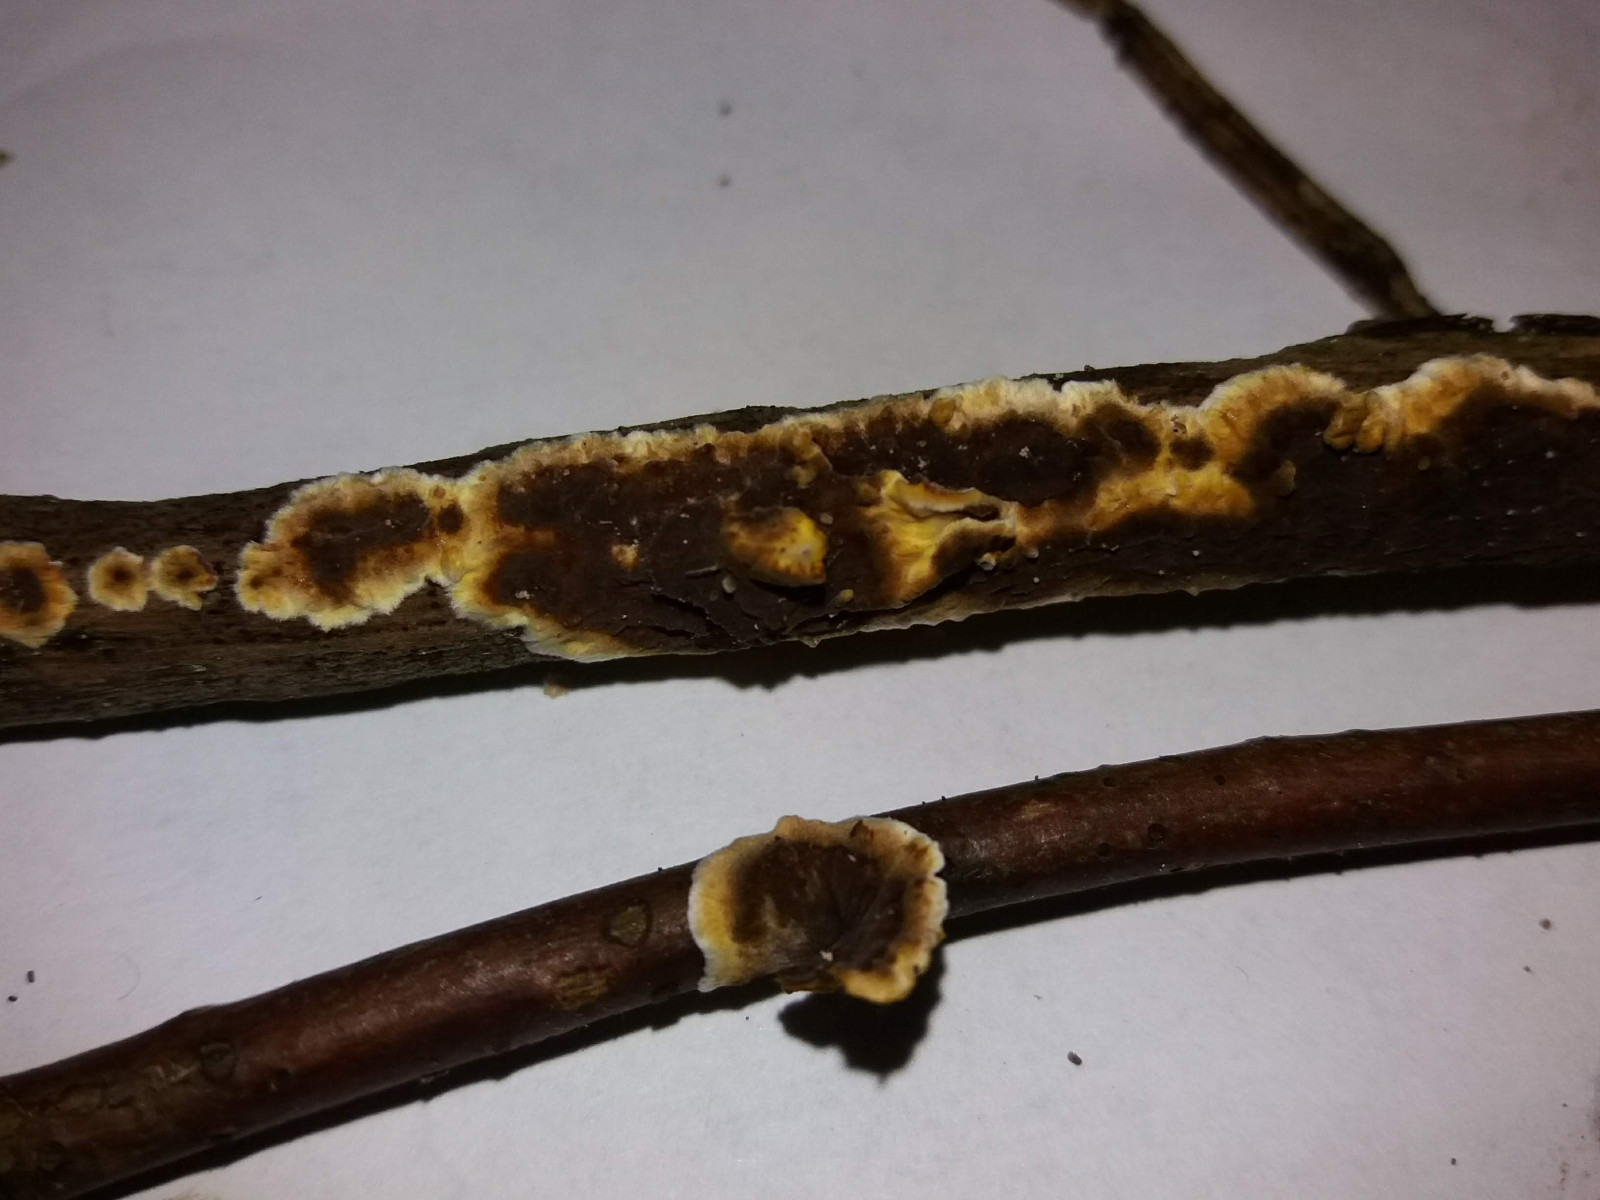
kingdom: Fungi
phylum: Basidiomycota
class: Agaricomycetes
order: Hymenochaetales
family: Hymenochaetaceae
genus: Hydnoporia
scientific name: Hydnoporia tabacina
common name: tobaksbrun ruslædersvamp
